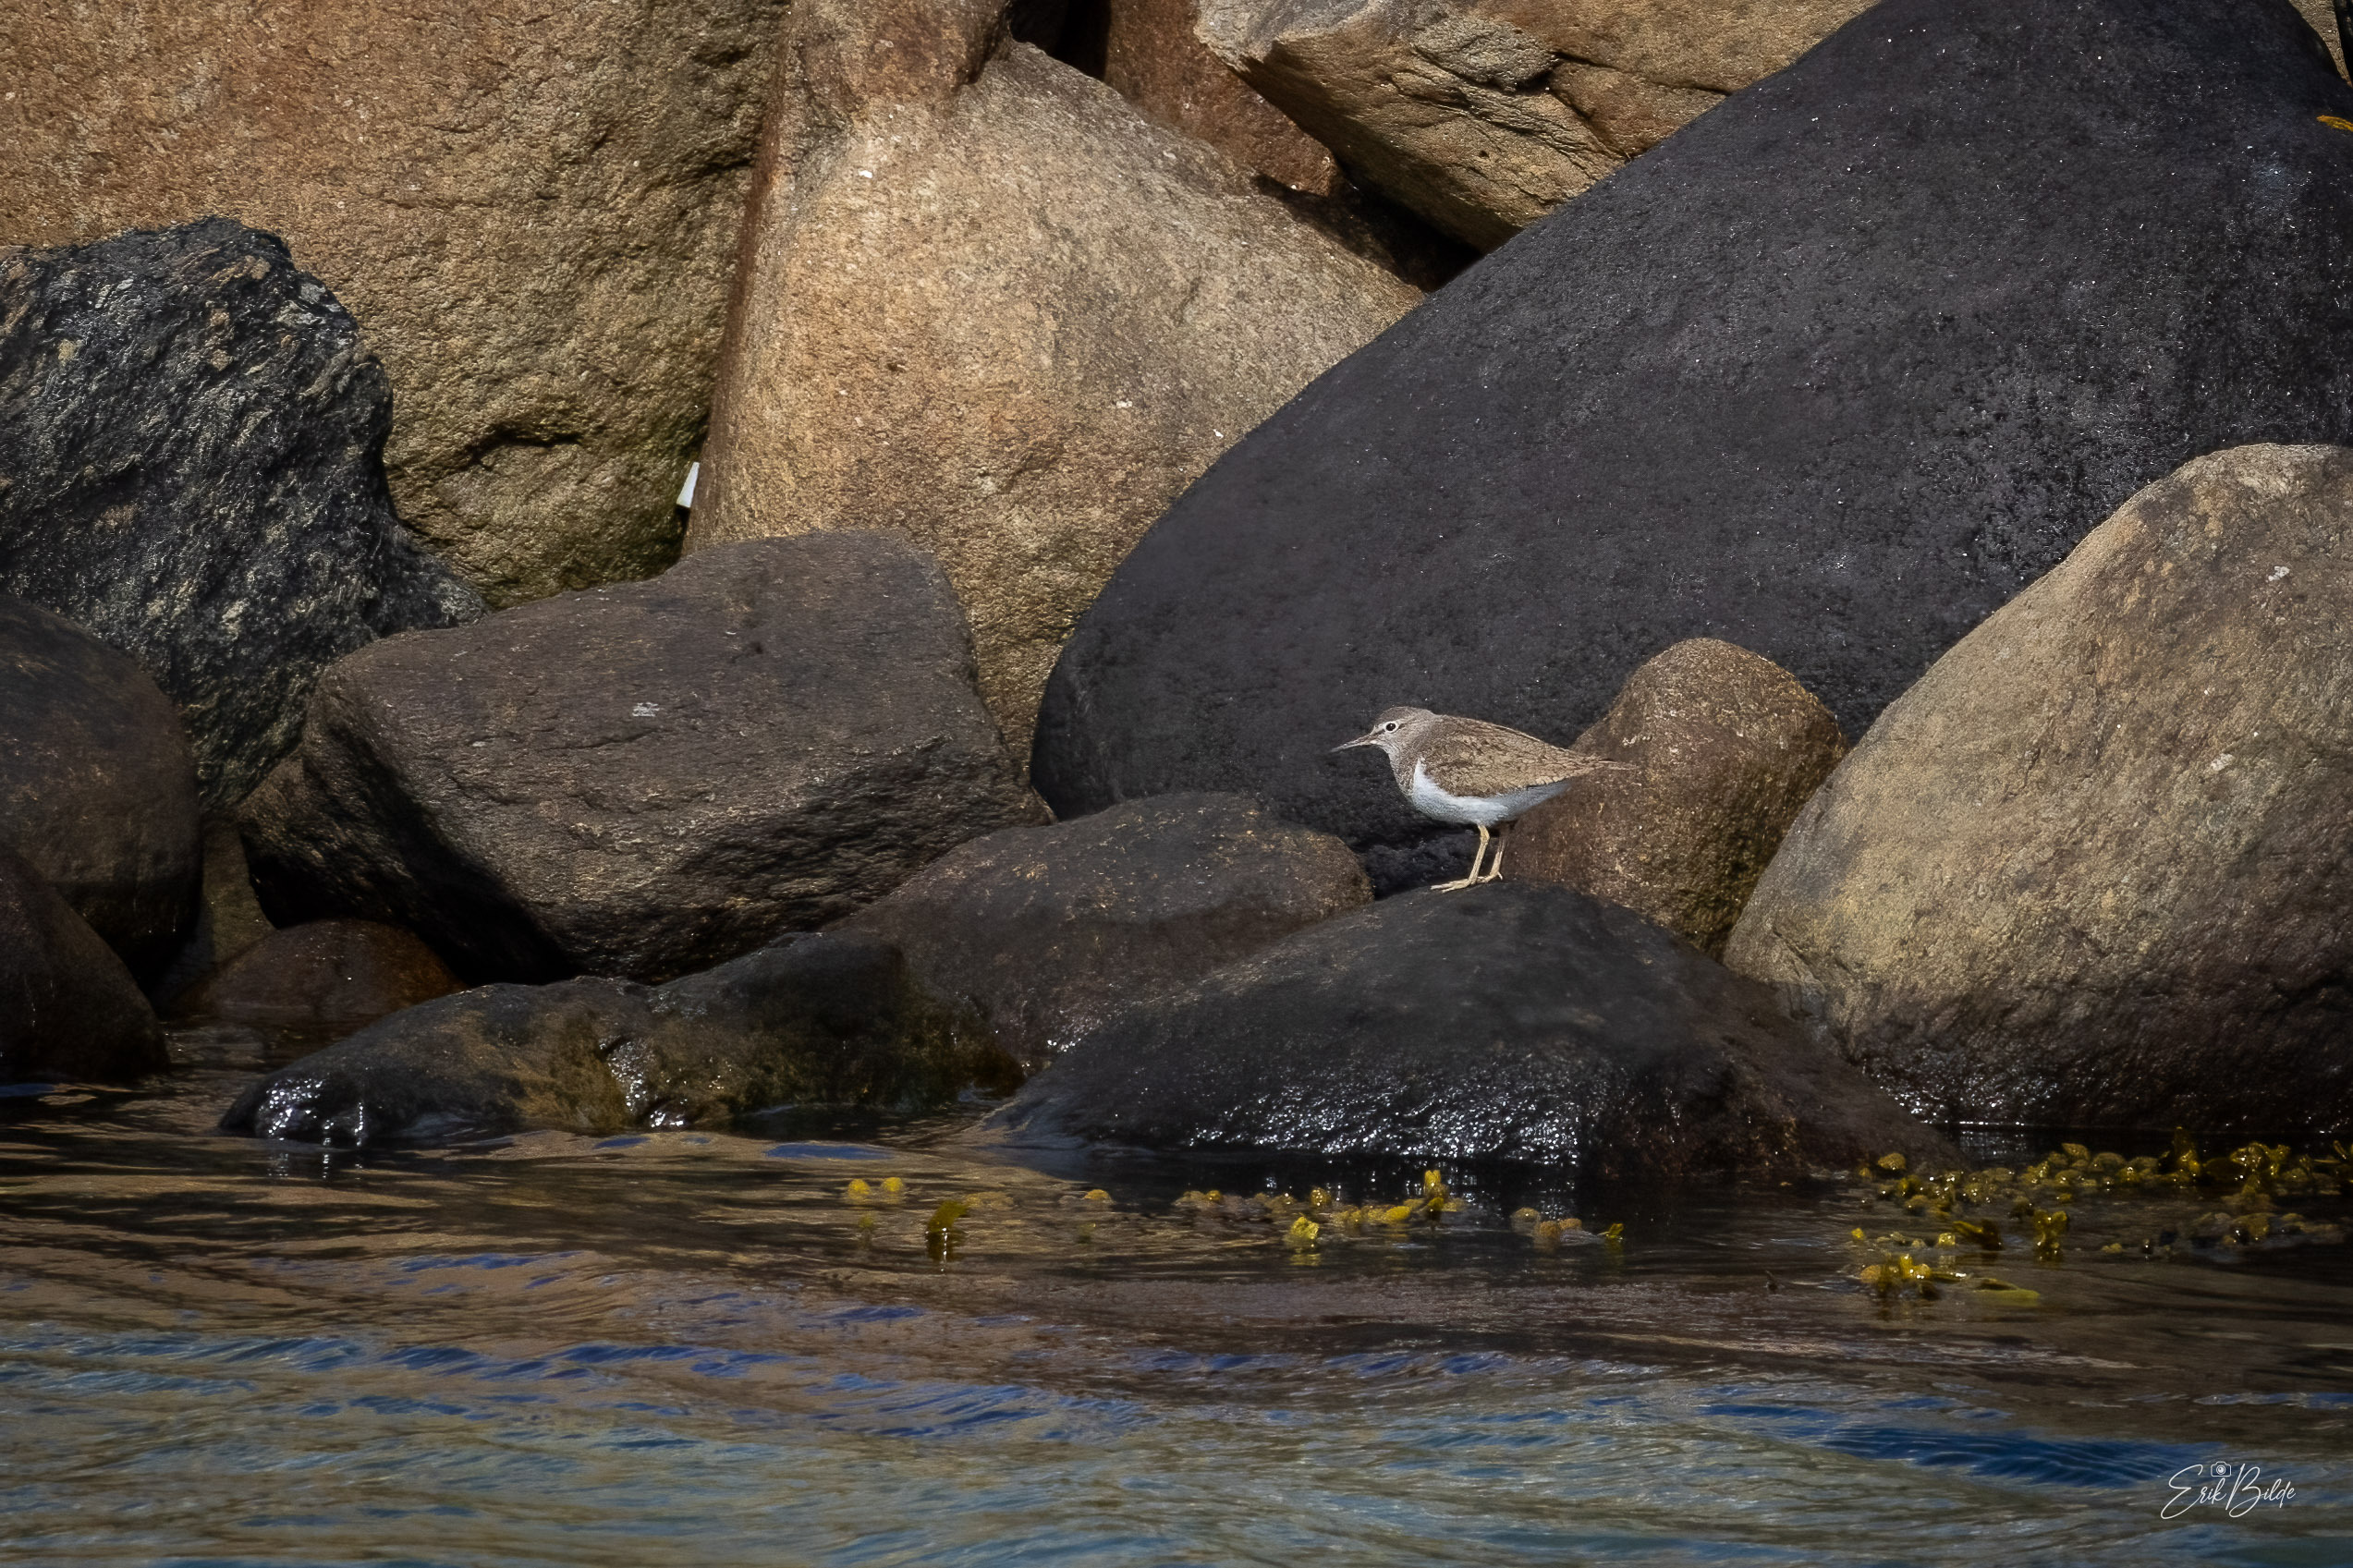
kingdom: Animalia
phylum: Chordata
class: Aves
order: Charadriiformes
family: Scolopacidae
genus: Actitis
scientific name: Actitis hypoleucos
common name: Mudderklire
